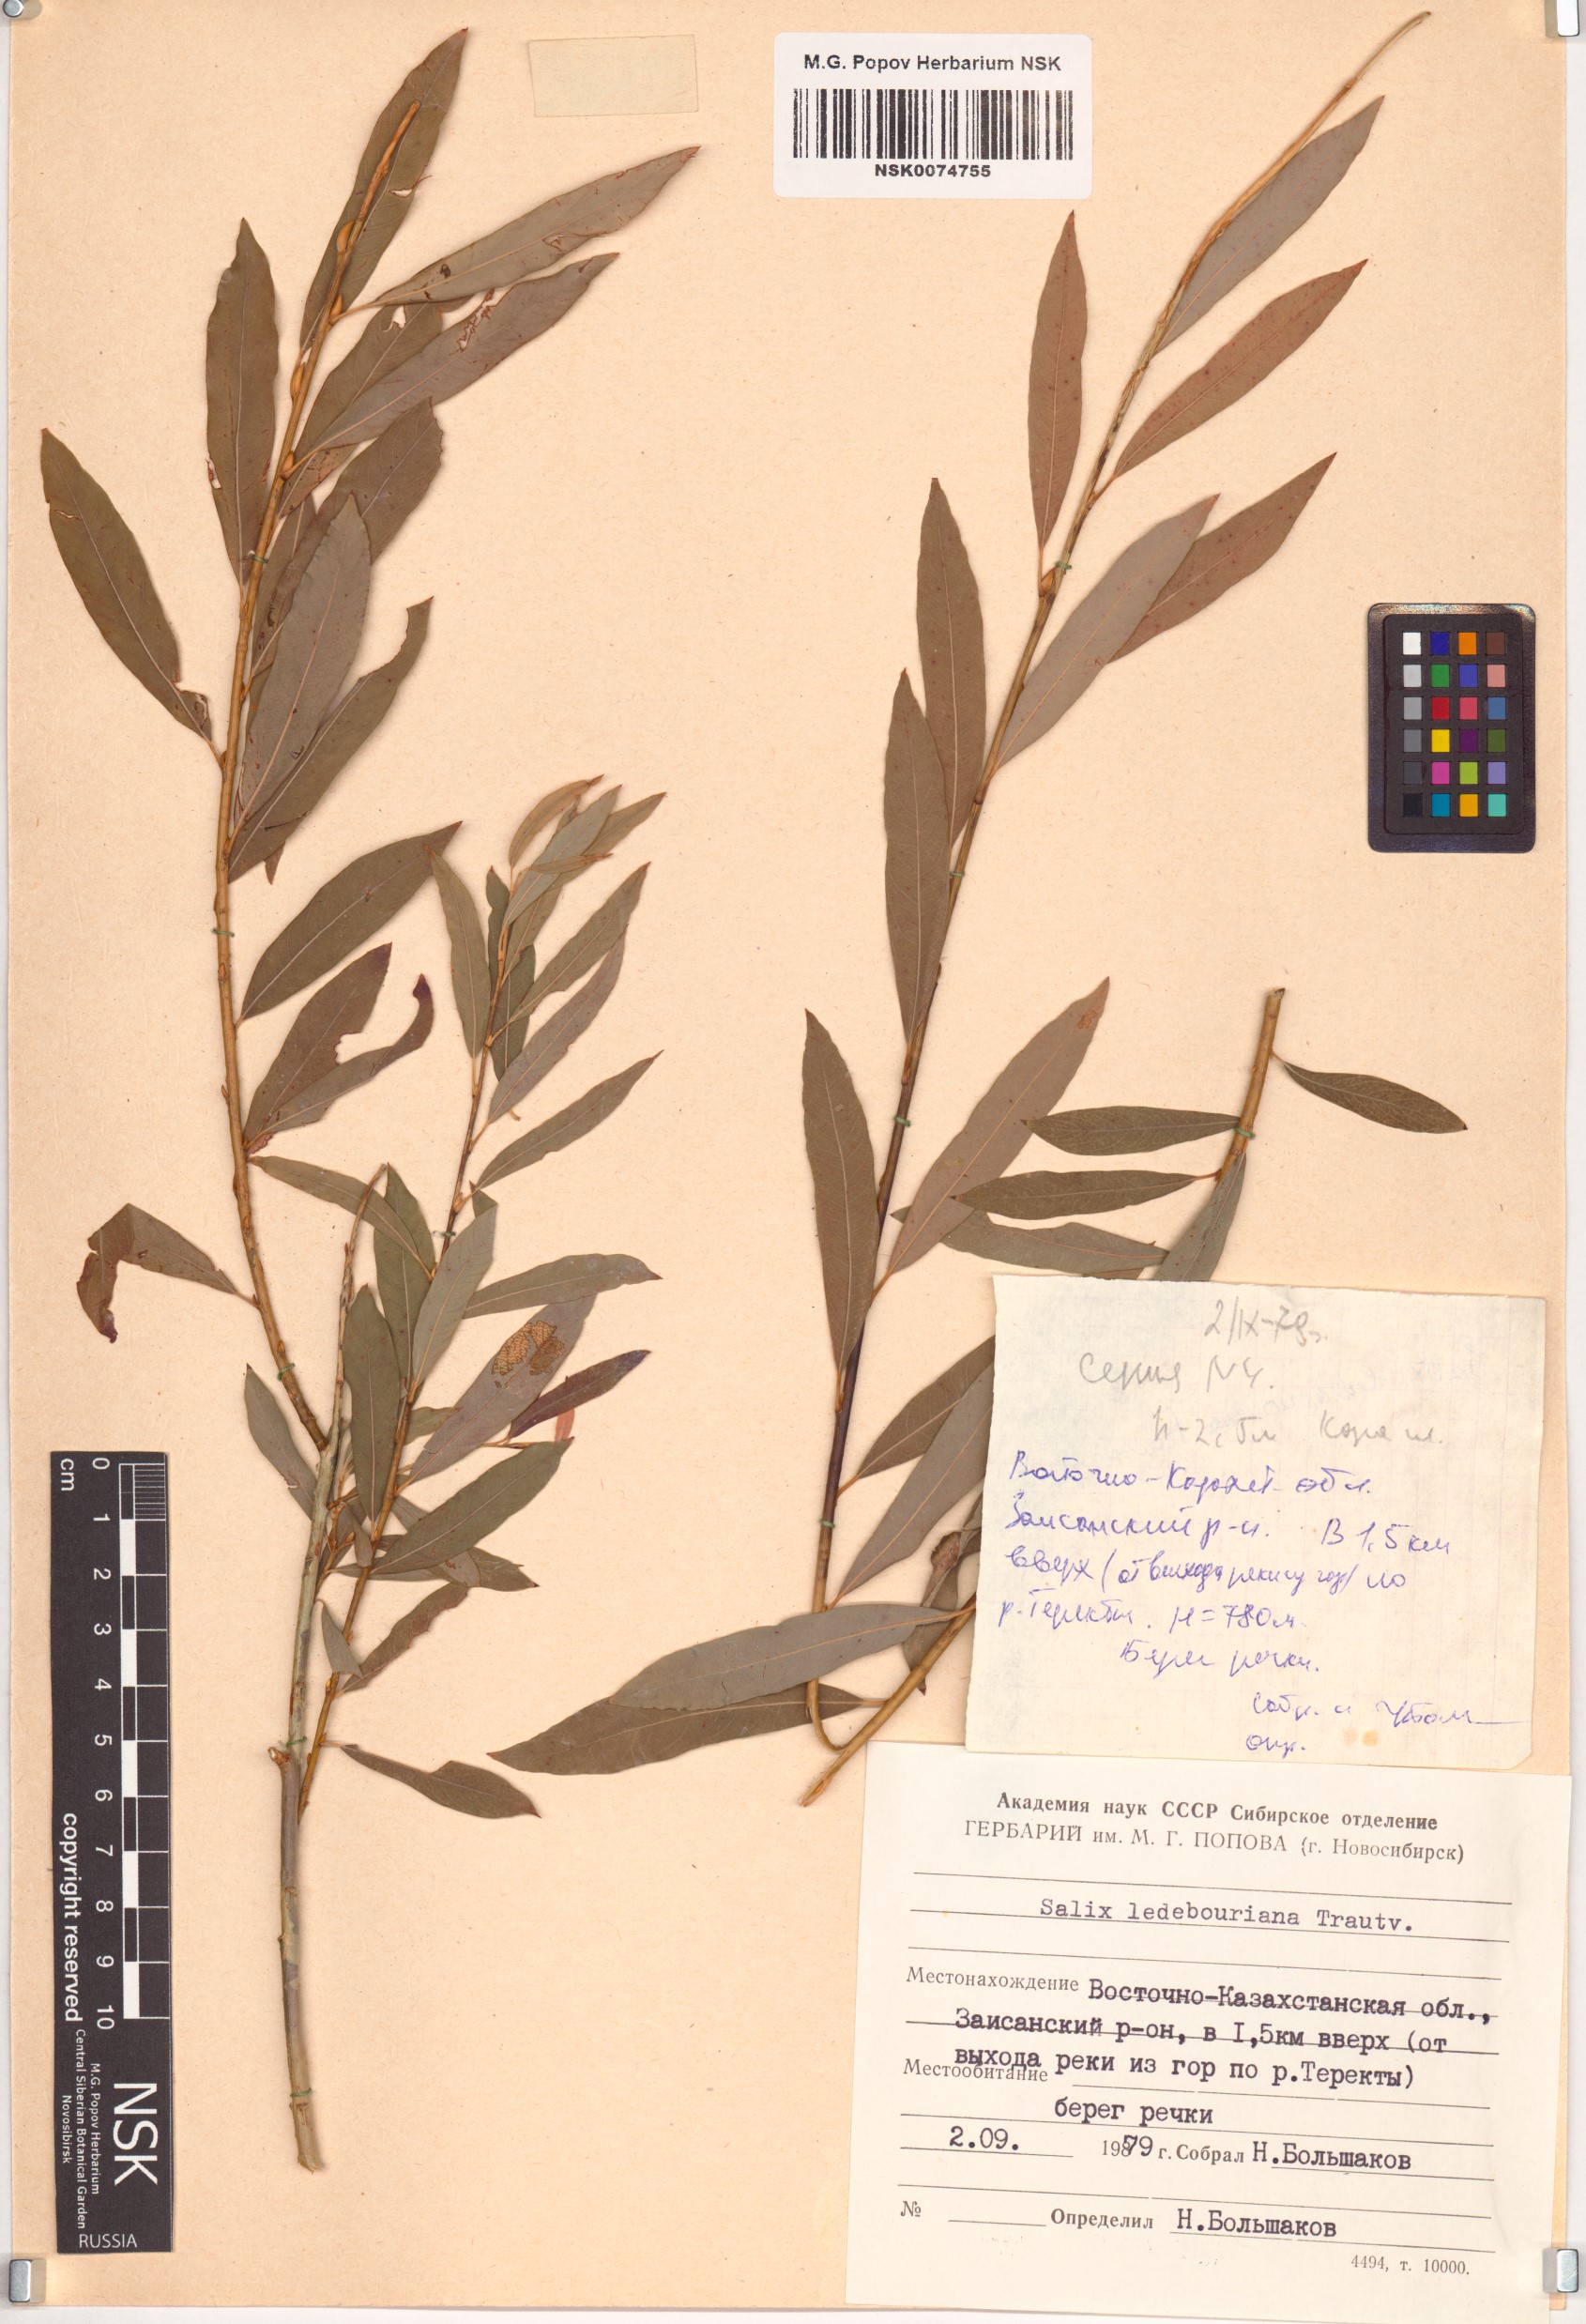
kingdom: Plantae
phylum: Tracheophyta
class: Magnoliopsida
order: Malpighiales
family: Salicaceae
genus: Salix
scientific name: Salix ledebouriana
